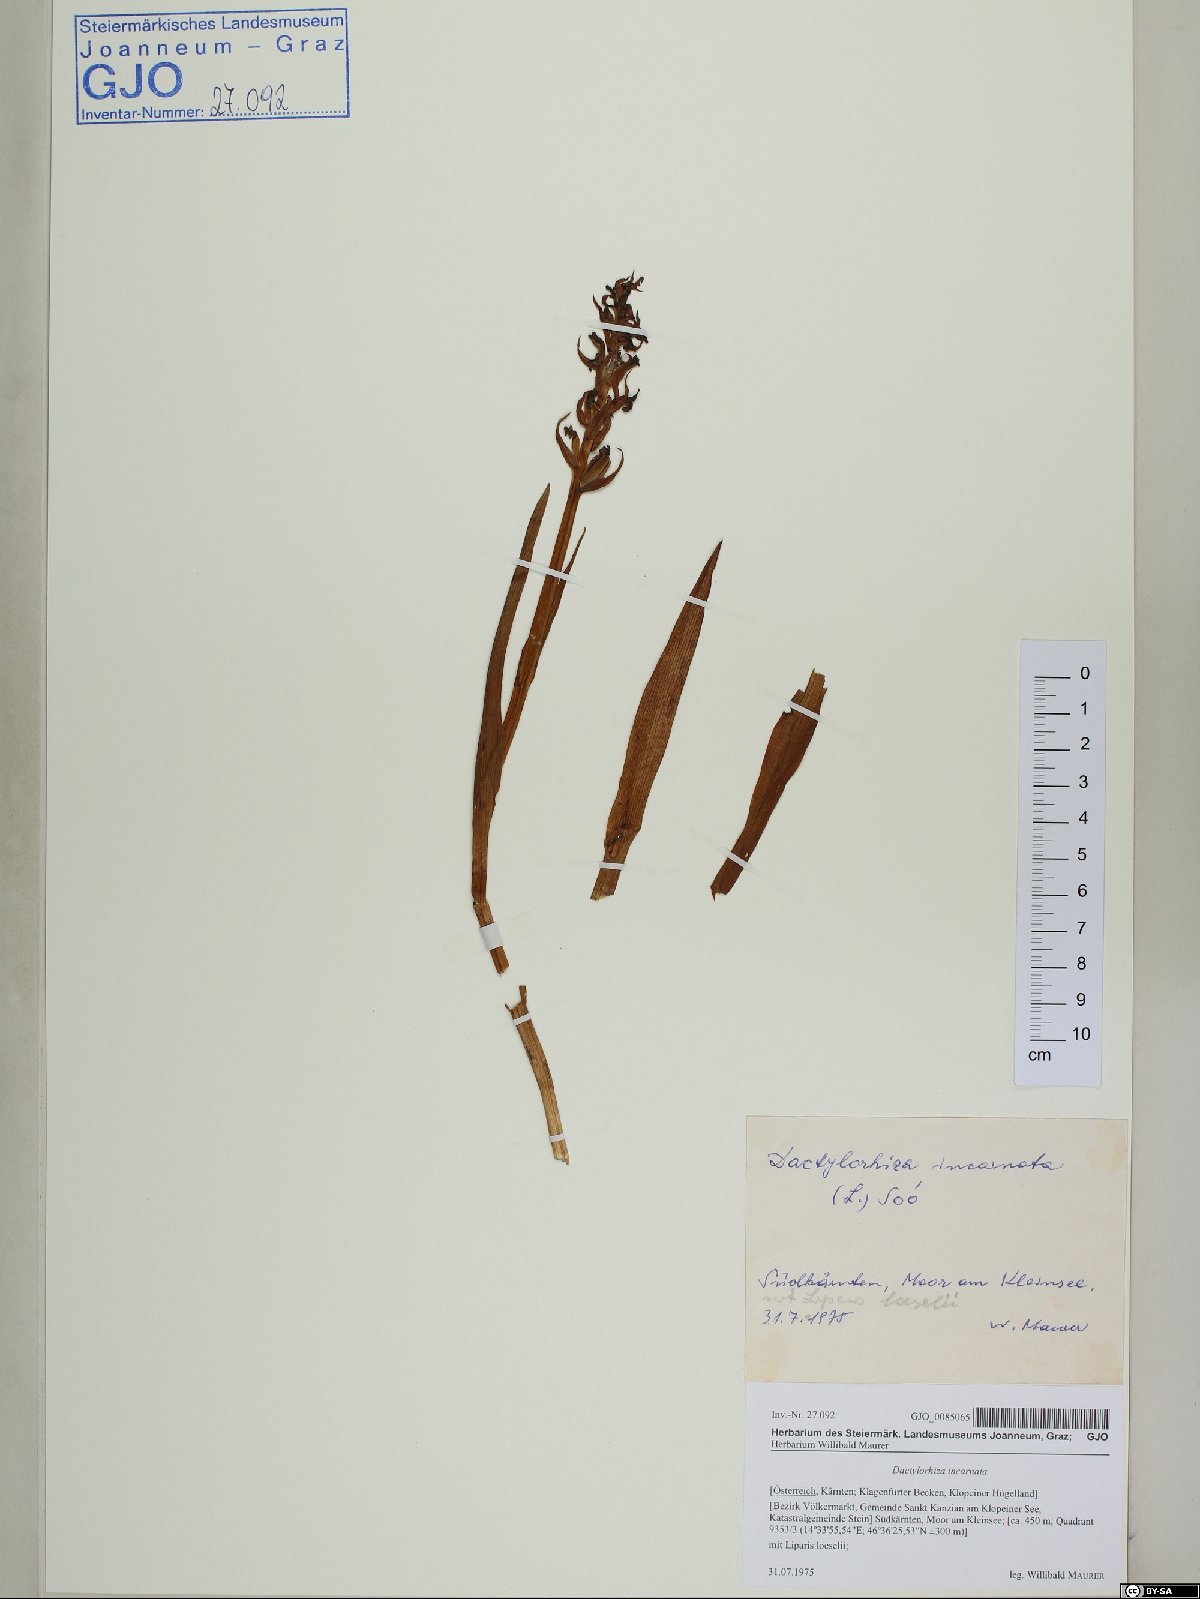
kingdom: Plantae
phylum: Tracheophyta
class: Liliopsida
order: Asparagales
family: Orchidaceae
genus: Dactylorhiza
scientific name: Dactylorhiza incarnata
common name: Early marsh-orchid
